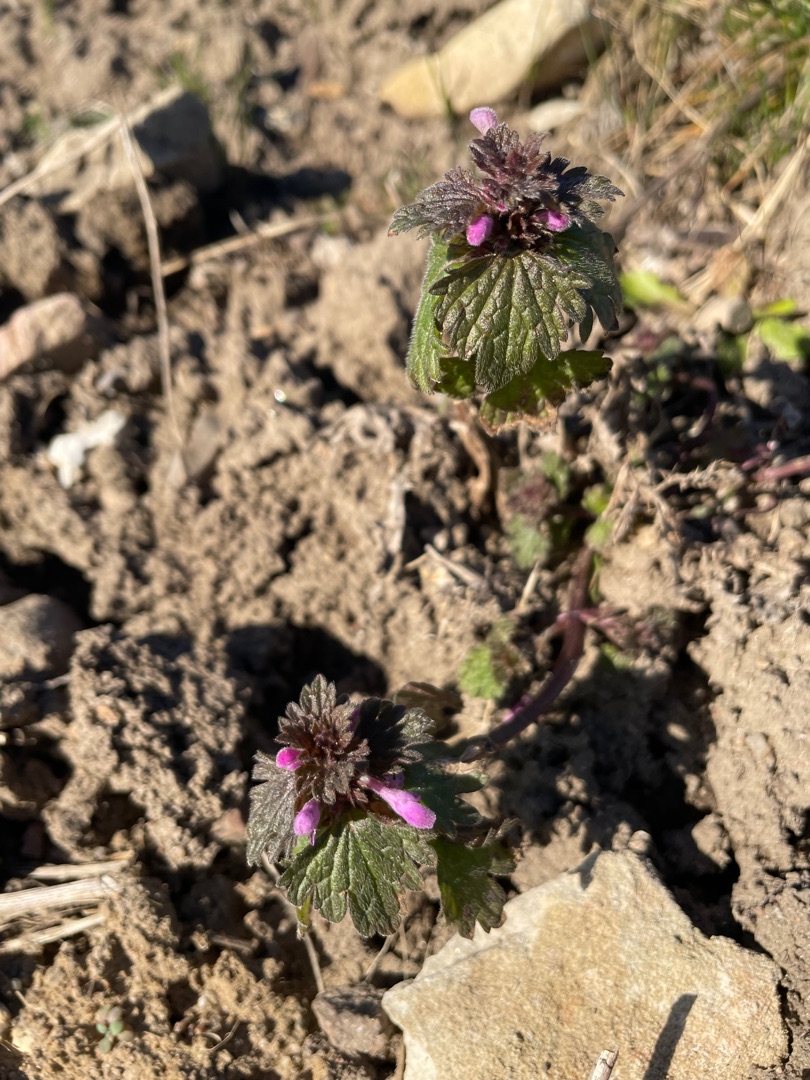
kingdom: Plantae
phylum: Tracheophyta
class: Magnoliopsida
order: Lamiales
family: Lamiaceae
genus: Lamium
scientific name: Lamium hybridum
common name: Fliget tvetand
